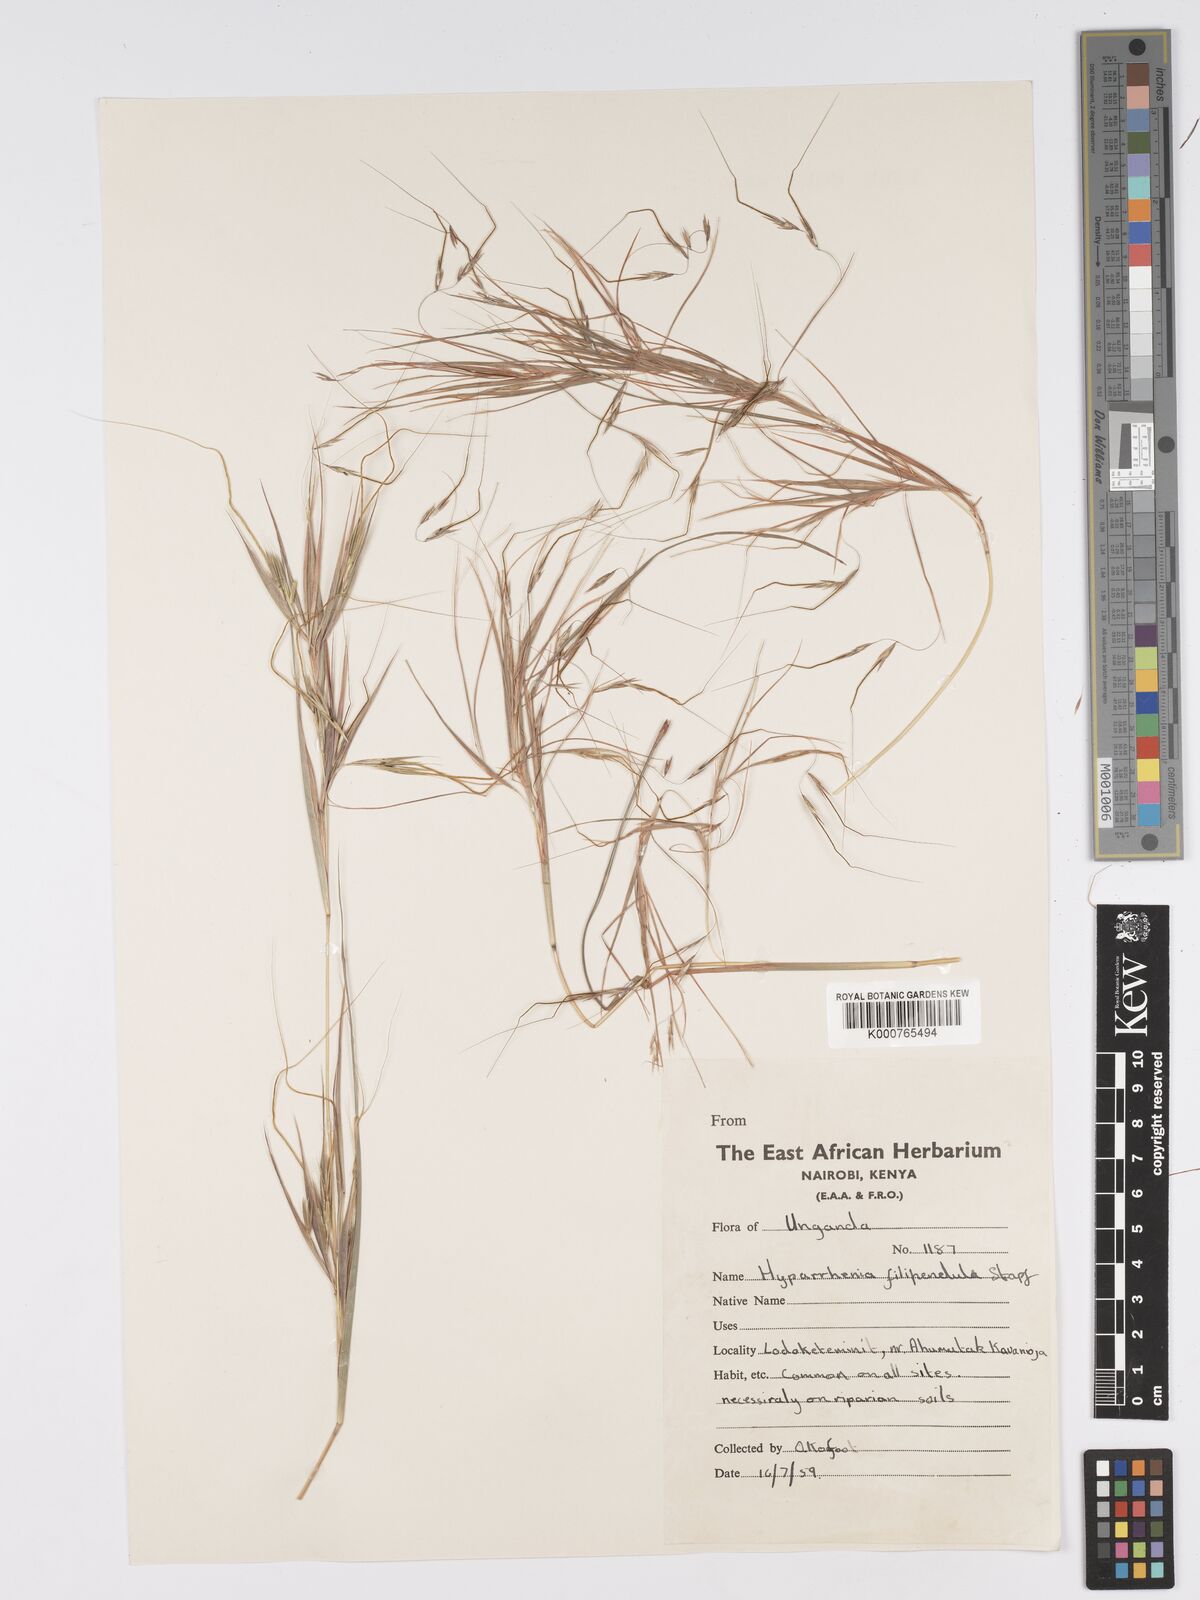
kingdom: Plantae
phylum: Tracheophyta
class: Liliopsida
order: Poales
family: Poaceae
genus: Hyparrhenia
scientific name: Hyparrhenia filipendula
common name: Tambookie grass
